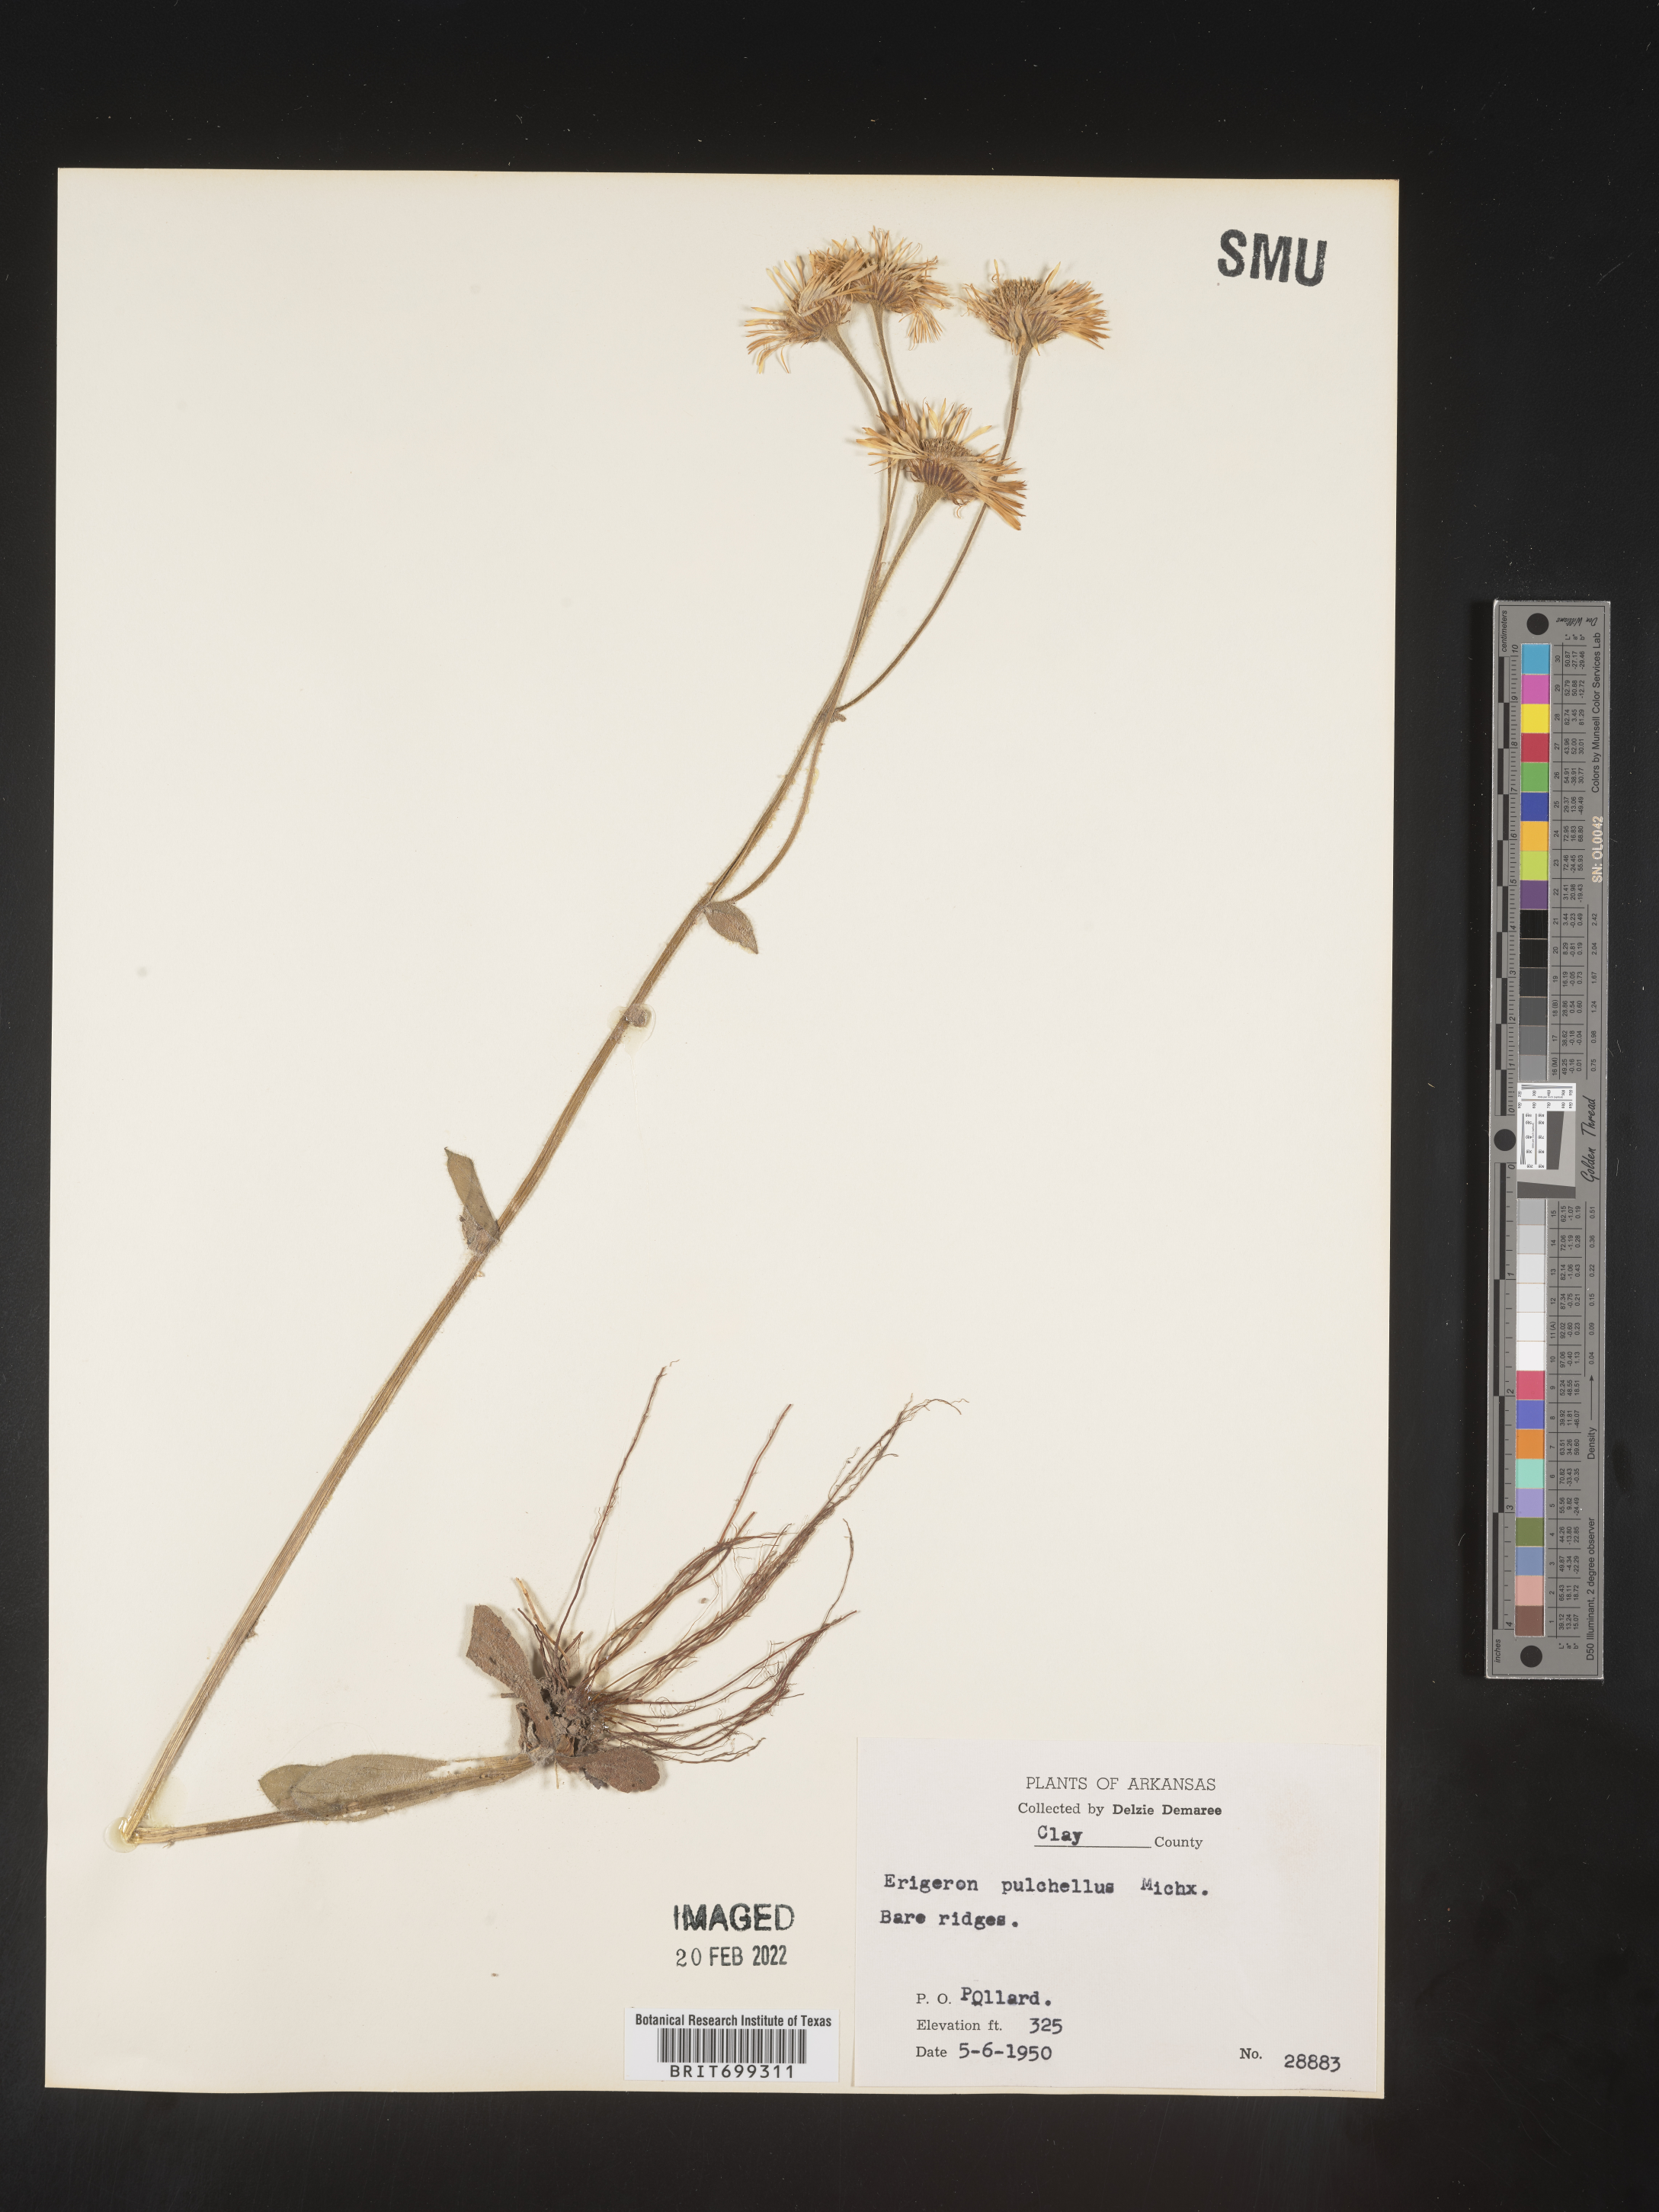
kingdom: Plantae
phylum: Tracheophyta
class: Magnoliopsida
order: Asterales
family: Asteraceae
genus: Erigeron
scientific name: Erigeron pulchellus
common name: Hairy fleabane
